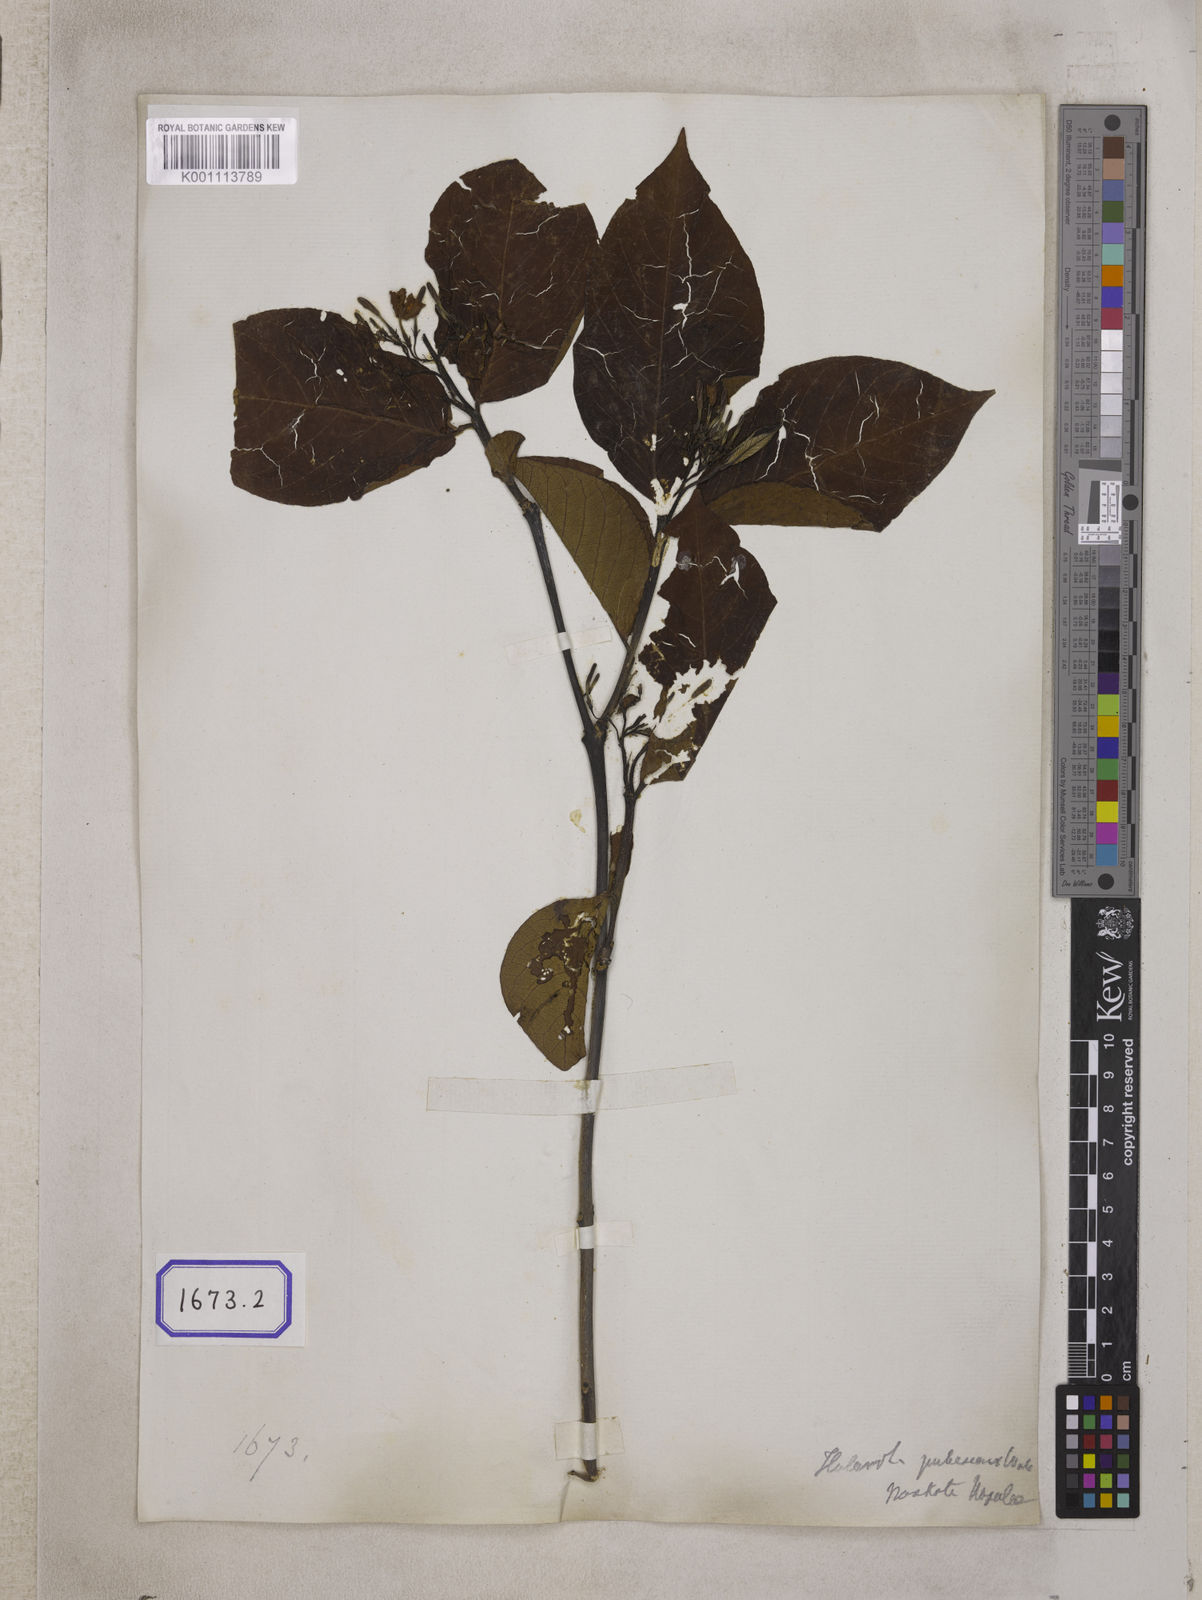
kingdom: Plantae
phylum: Tracheophyta
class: Magnoliopsida
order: Gentianales
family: Apocynaceae
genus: Holarrhena
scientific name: Holarrhena
